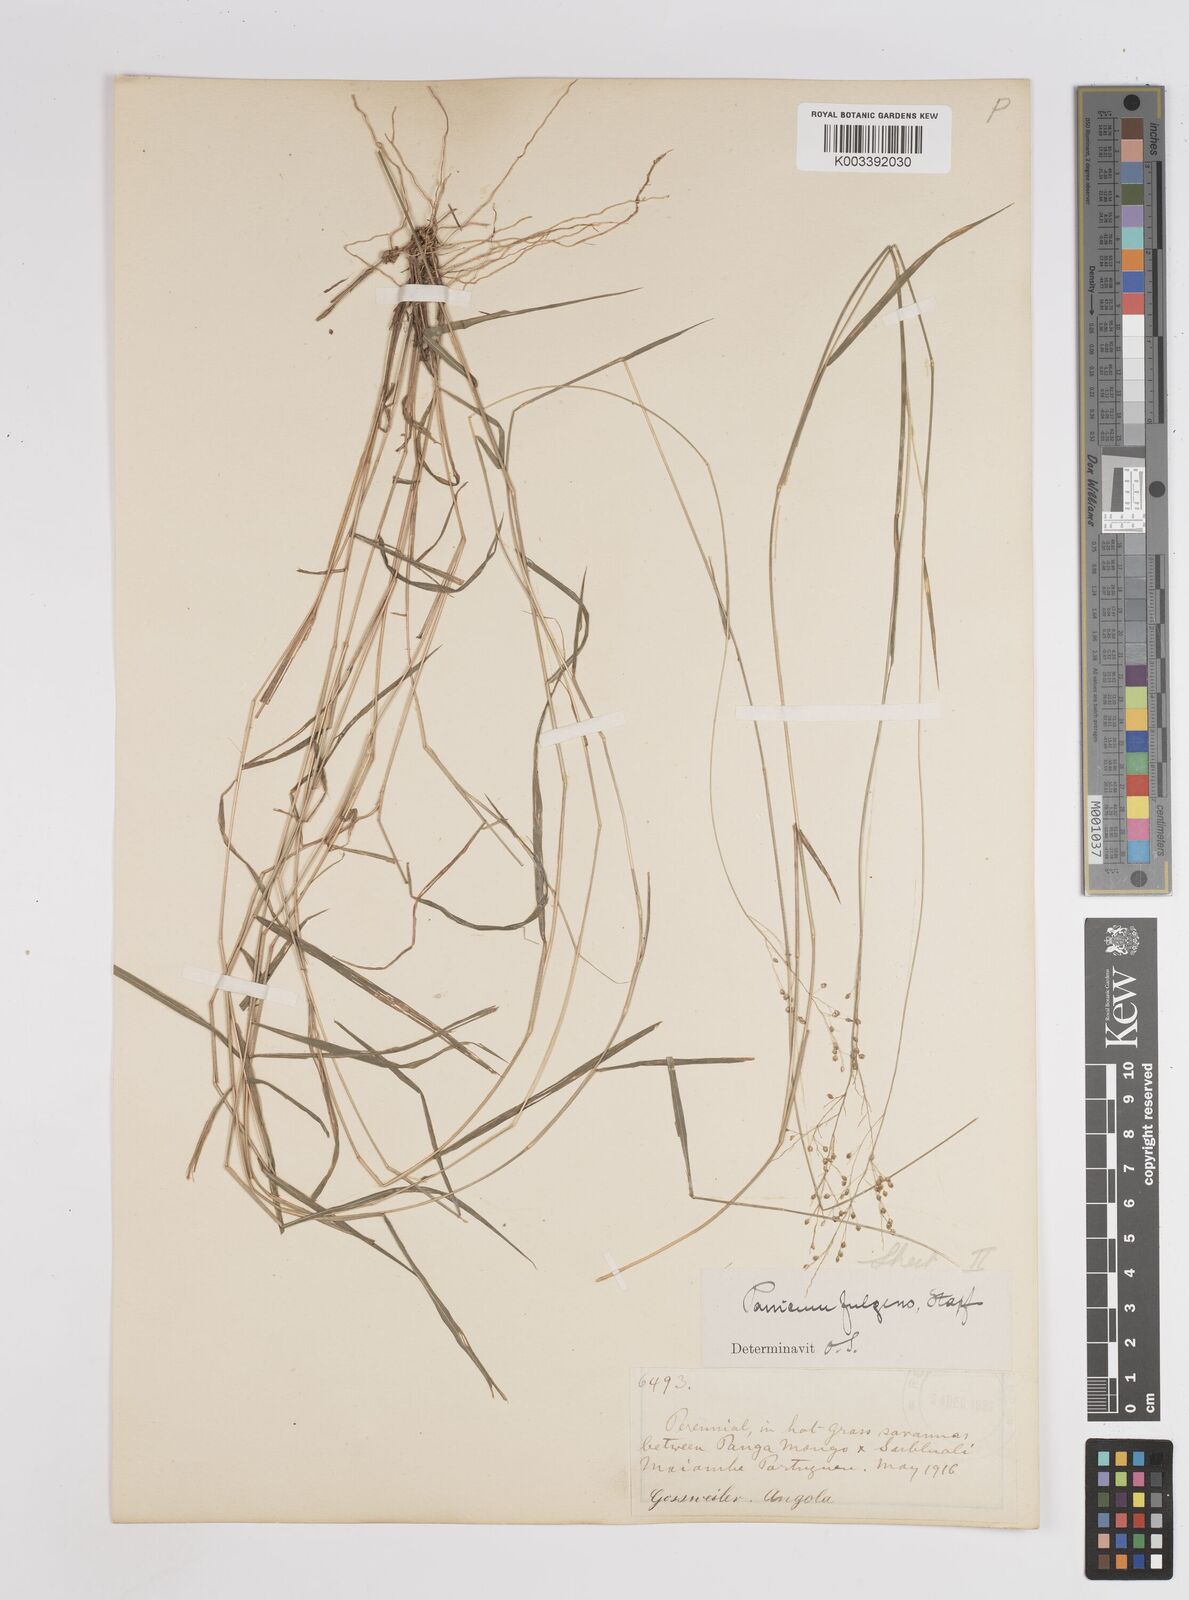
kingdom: Plantae
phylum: Tracheophyta
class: Liliopsida
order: Poales
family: Poaceae
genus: Trichanthecium
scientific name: Trichanthecium nervatum
